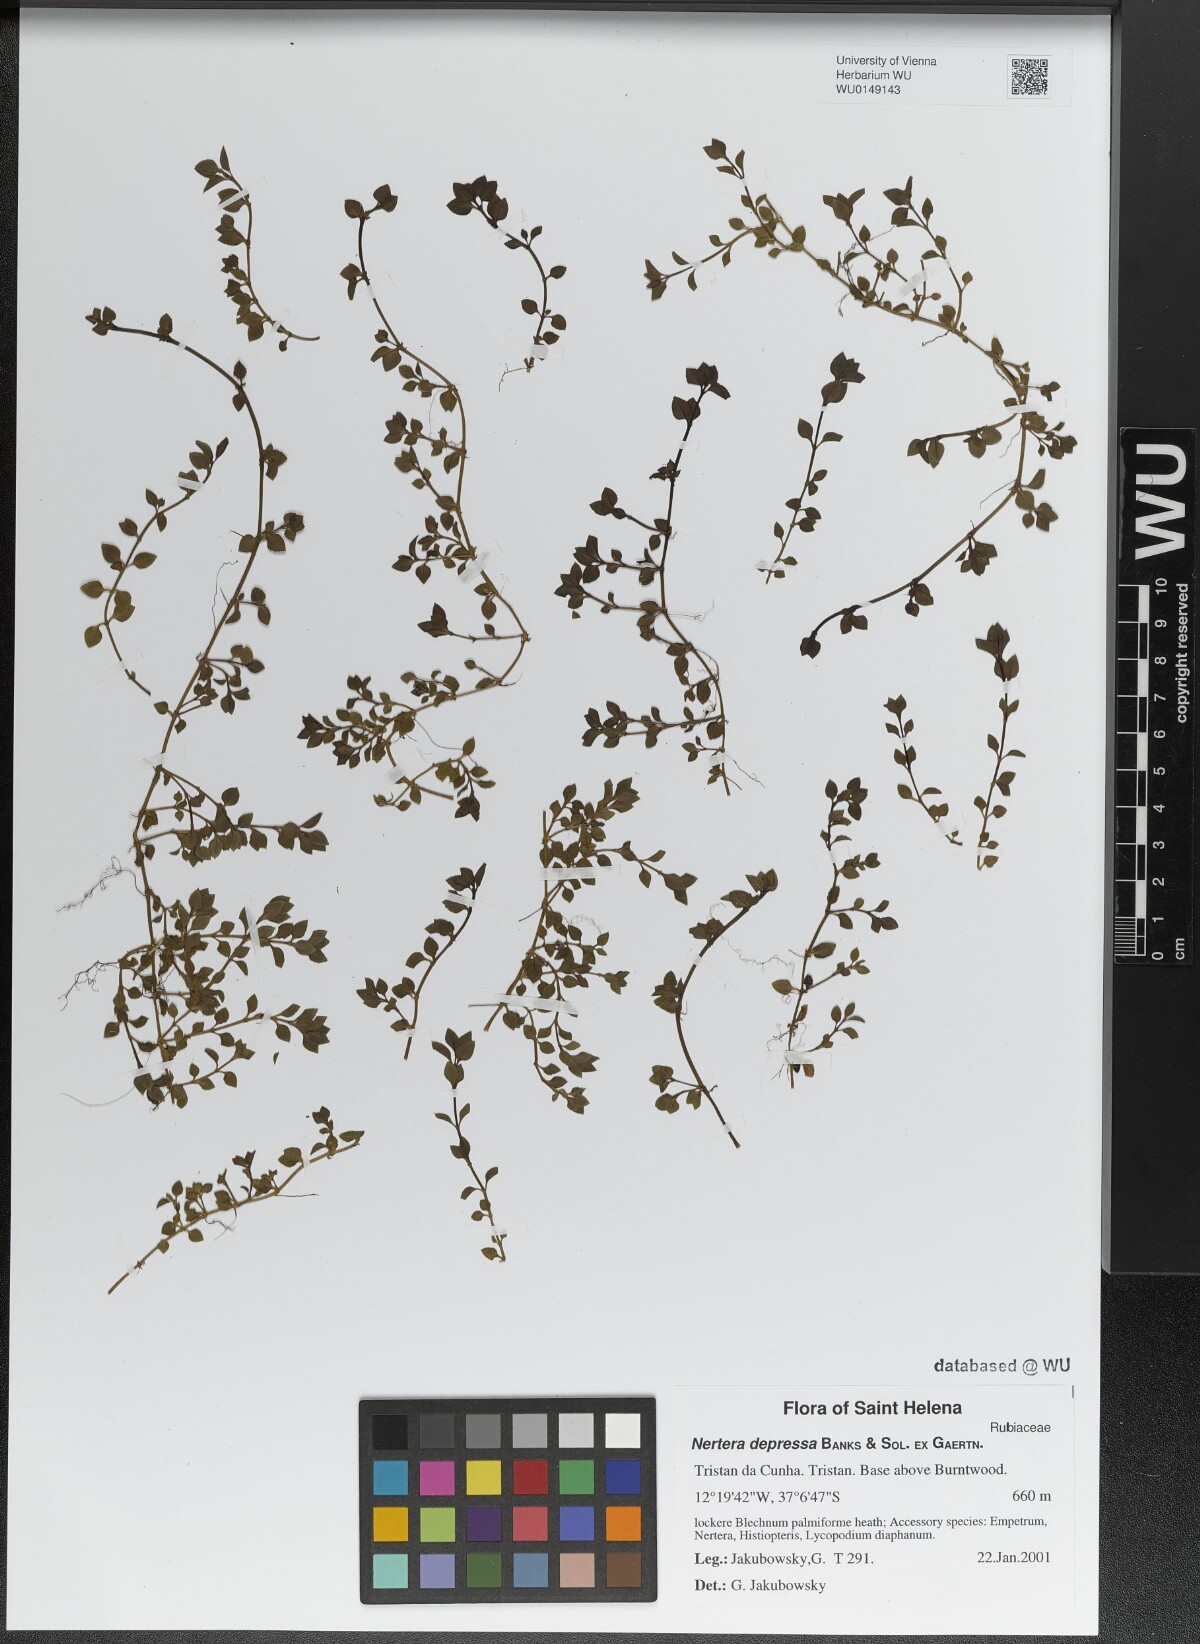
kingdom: Plantae
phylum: Tracheophyta
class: Magnoliopsida
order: Gentianales
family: Rubiaceae
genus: Nertera
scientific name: Nertera granadensis
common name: Beadplant
